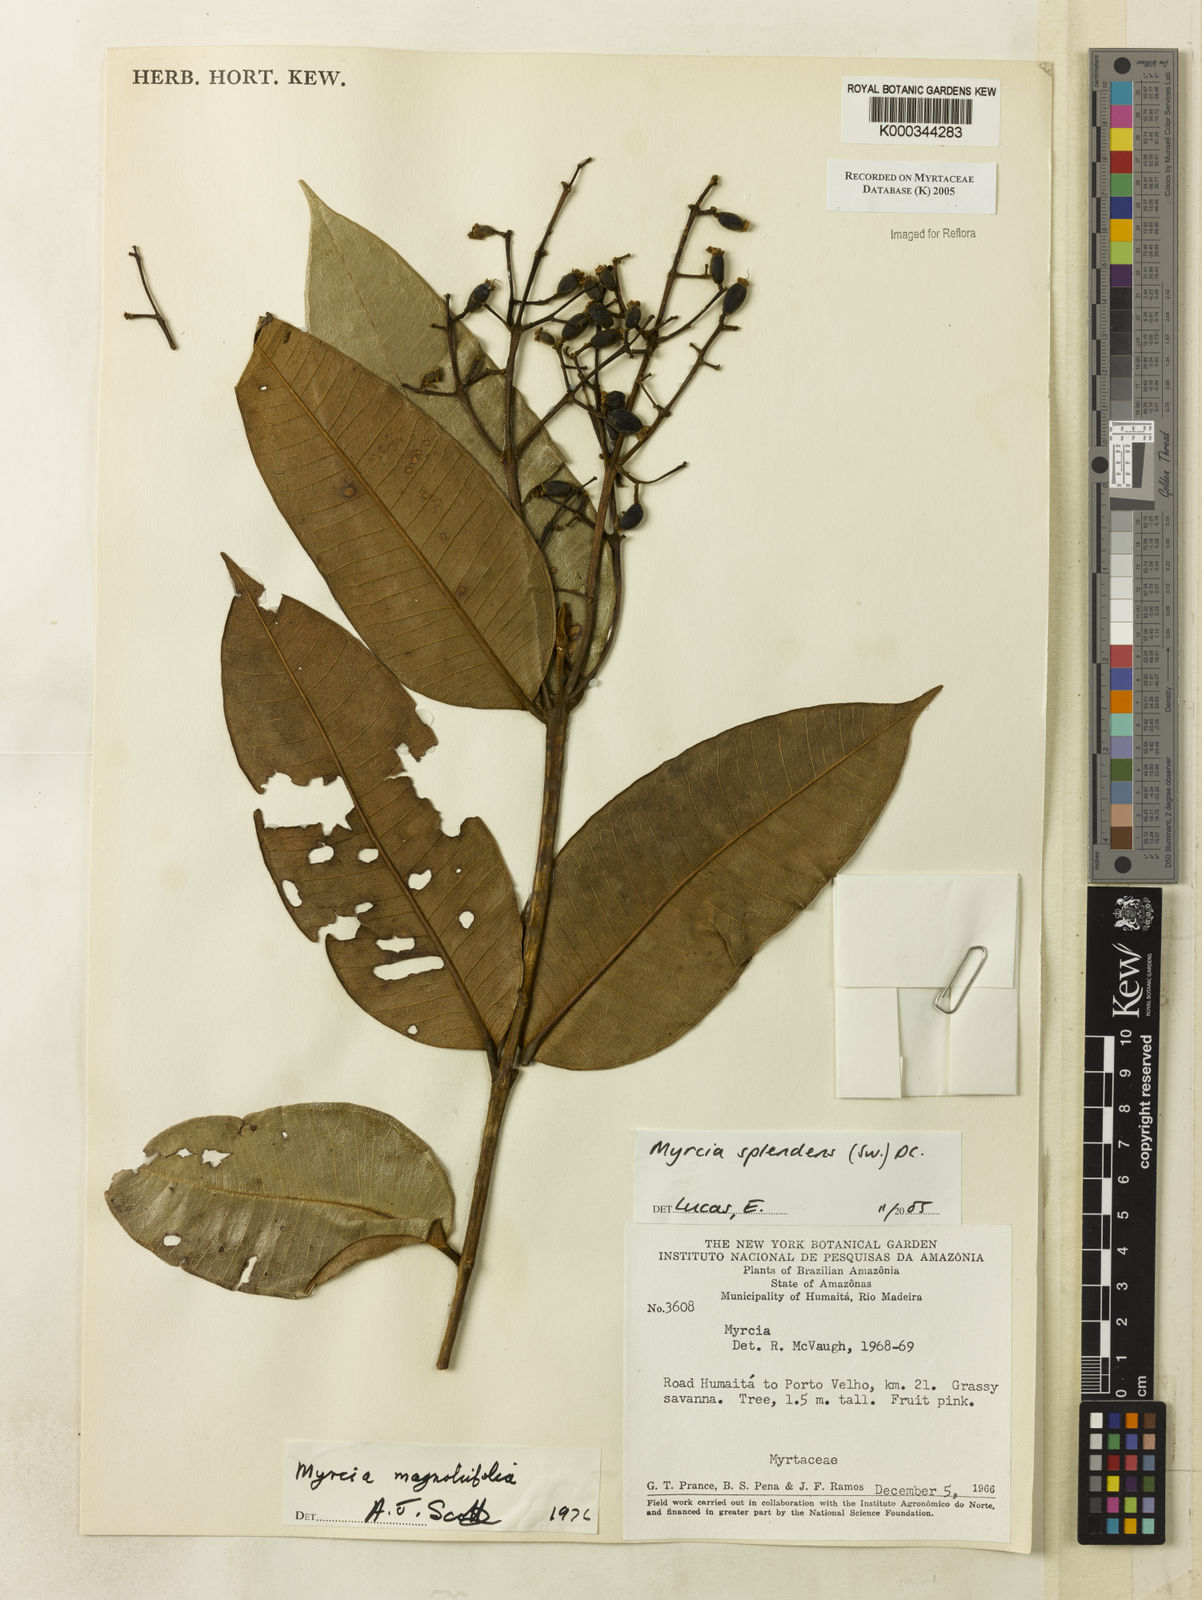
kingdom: Plantae
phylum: Tracheophyta
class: Magnoliopsida
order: Myrtales
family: Myrtaceae
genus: Myrcia
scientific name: Myrcia splendens
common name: Surinam cherry
